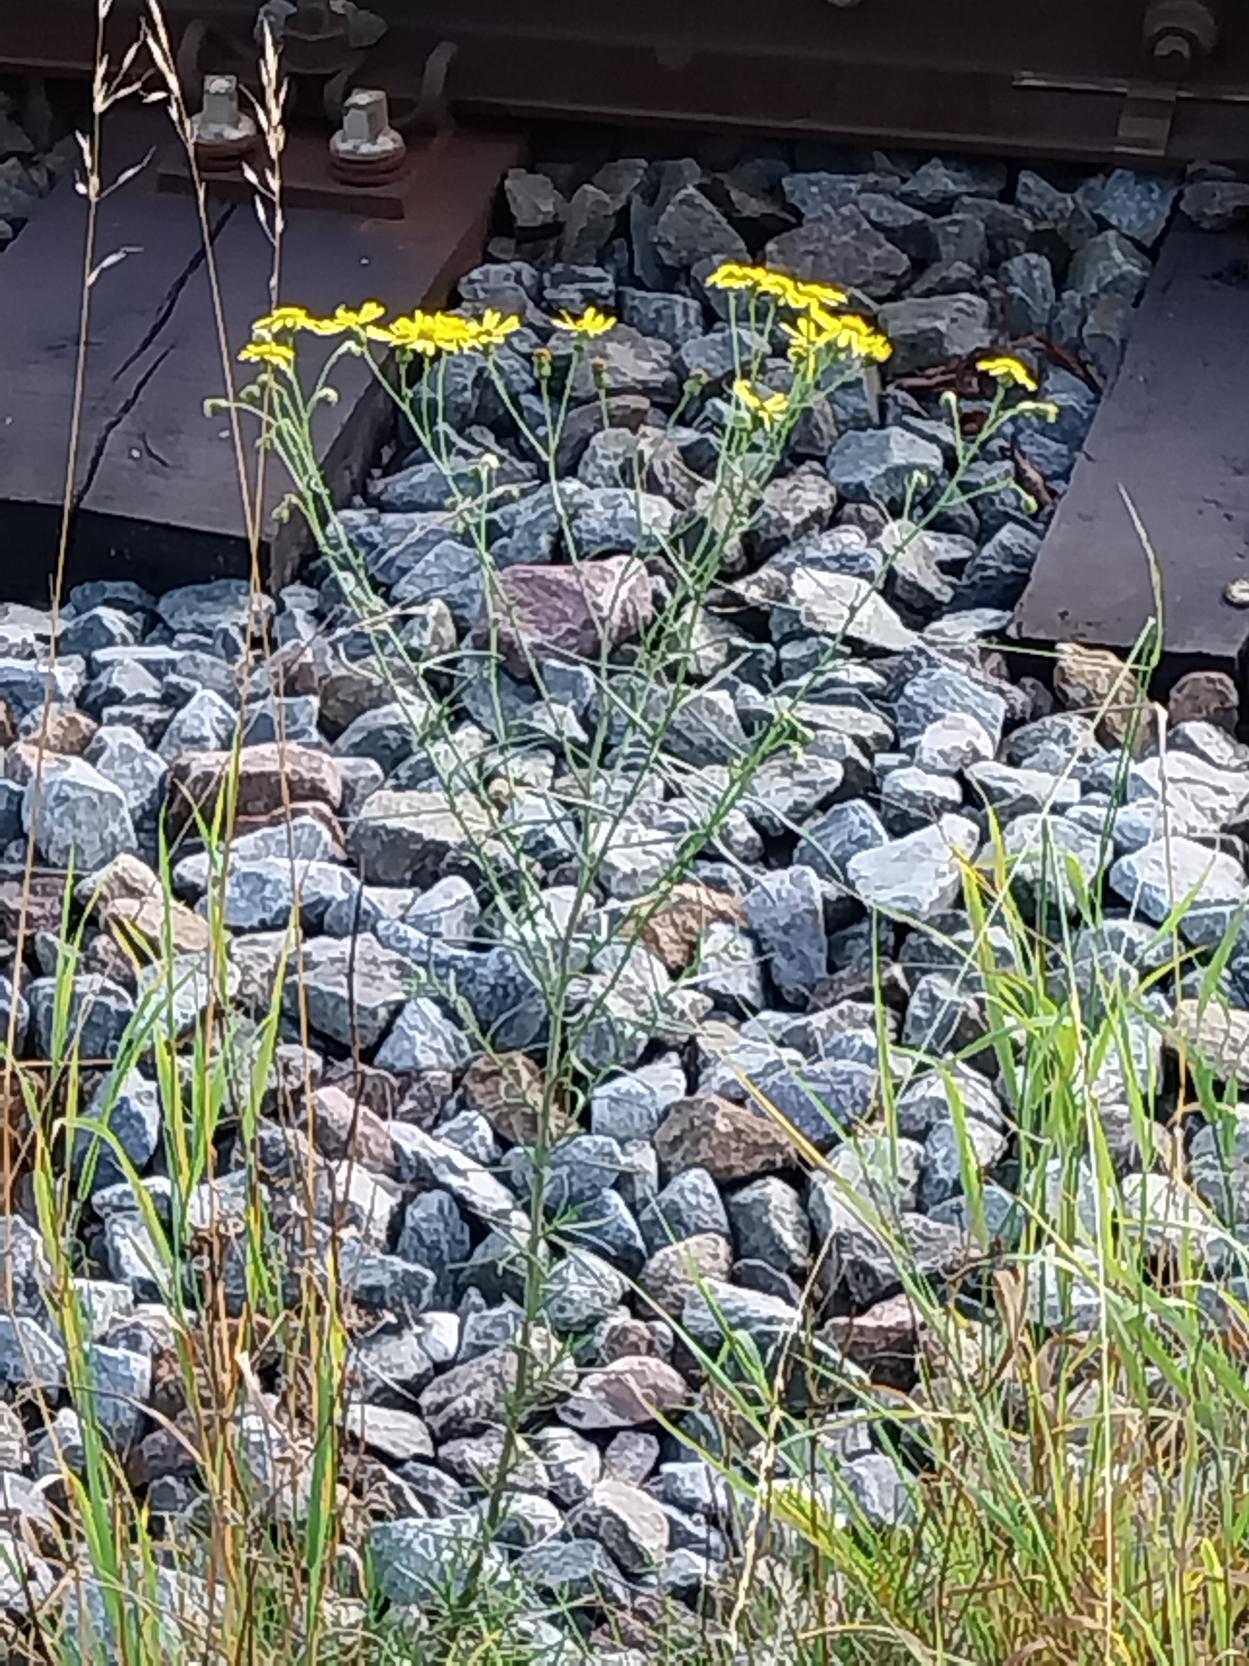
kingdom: Plantae
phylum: Tracheophyta
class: Magnoliopsida
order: Asterales
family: Asteraceae
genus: Senecio
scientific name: Senecio inaequidens
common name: Smalbladet brandbæger
